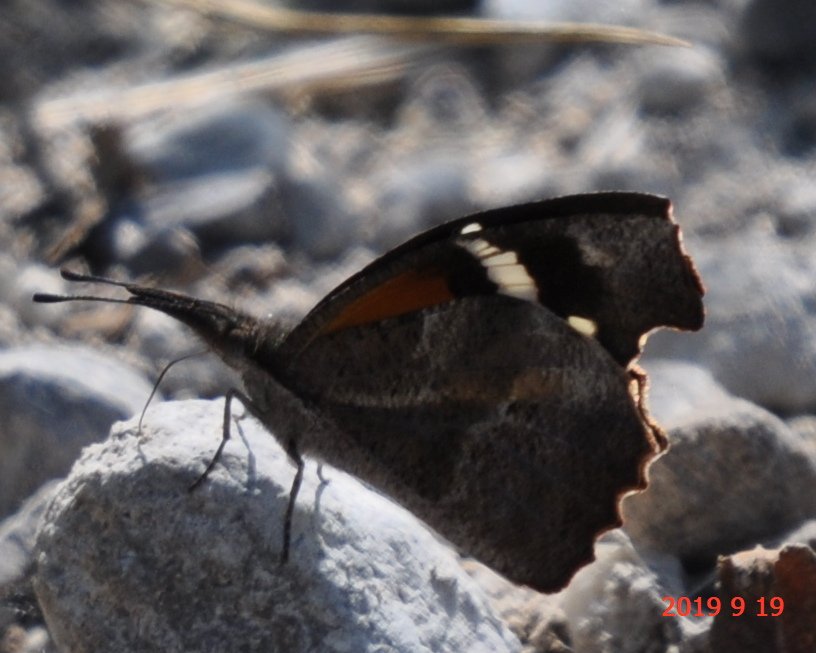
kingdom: Animalia
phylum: Arthropoda
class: Insecta
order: Lepidoptera
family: Nymphalidae
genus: Libytheana
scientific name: Libytheana carinenta
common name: American Snout
